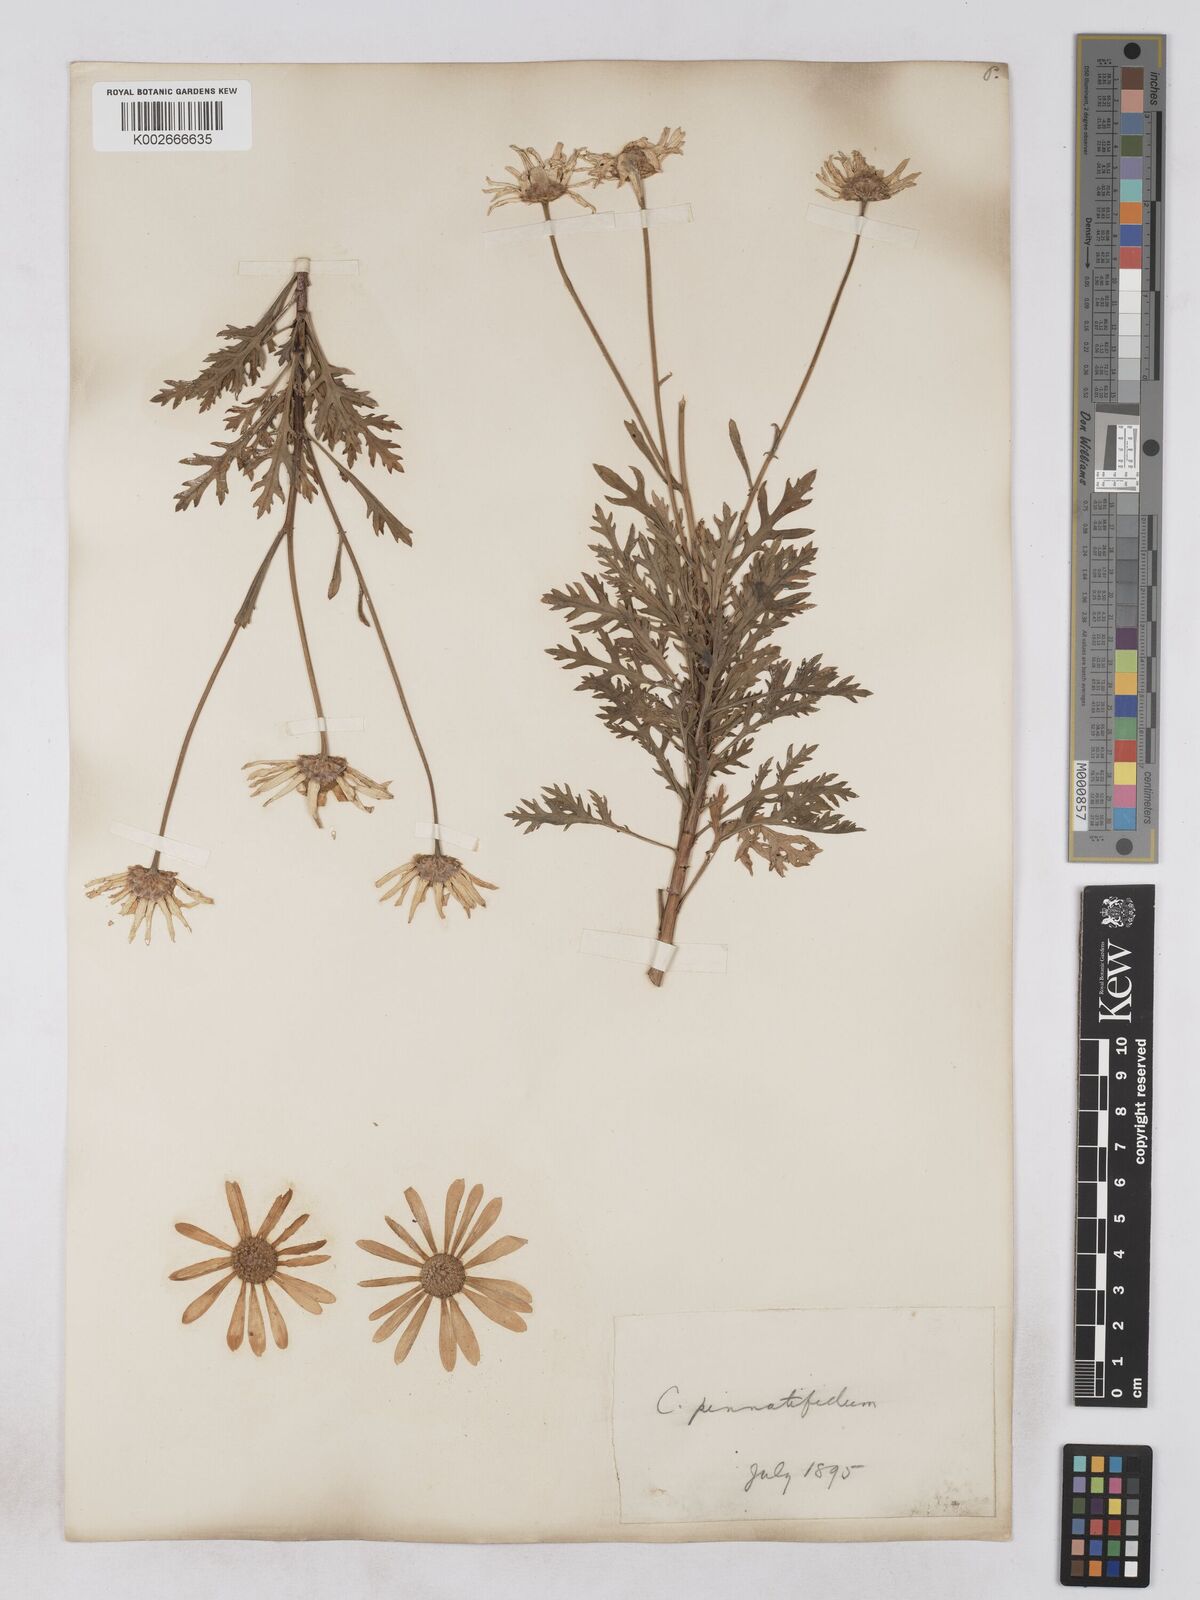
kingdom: Plantae
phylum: Tracheophyta
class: Magnoliopsida
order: Asterales
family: Asteraceae
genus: Argyranthemum
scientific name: Argyranthemum
